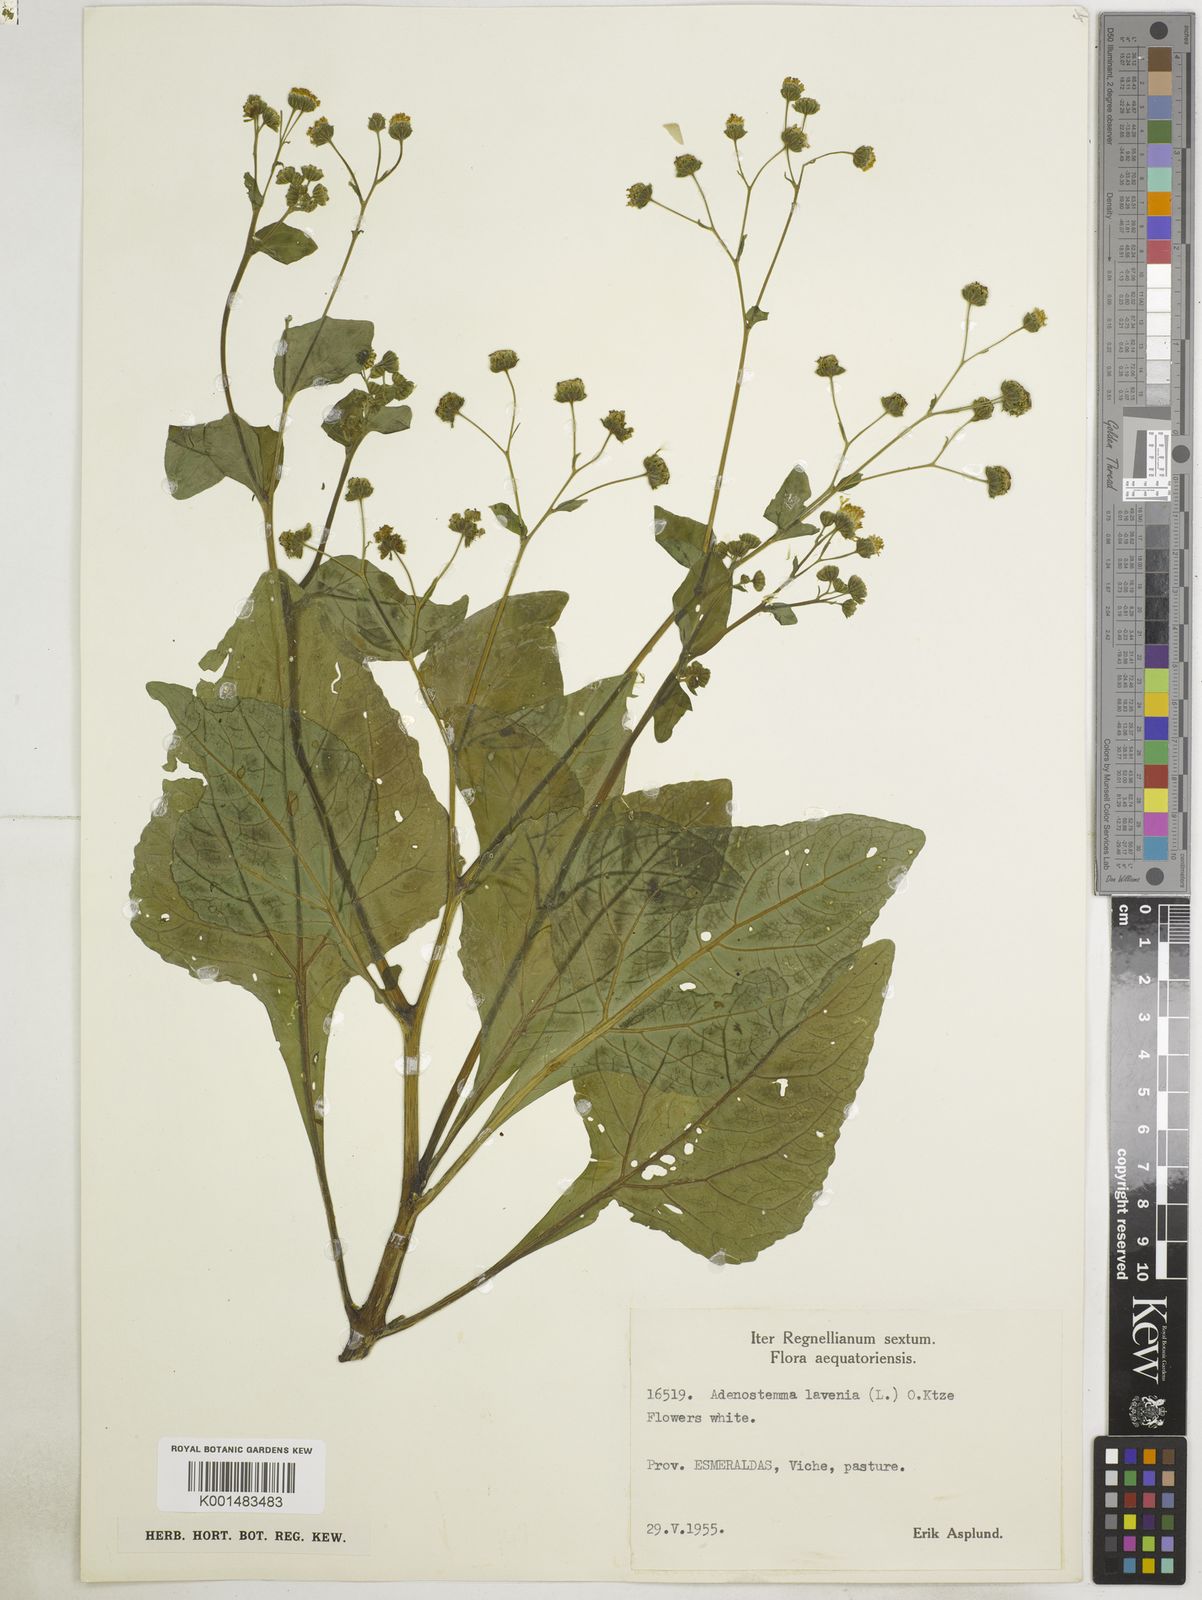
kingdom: Plantae
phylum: Tracheophyta
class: Magnoliopsida
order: Asterales
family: Asteraceae
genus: Adenostemma
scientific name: Adenostemma lavenia
